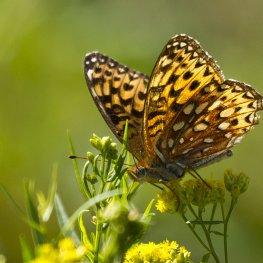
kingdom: Animalia
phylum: Arthropoda
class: Insecta
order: Lepidoptera
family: Nymphalidae
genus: Speyeria
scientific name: Speyeria atlantis
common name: Atlantis Fritillary
